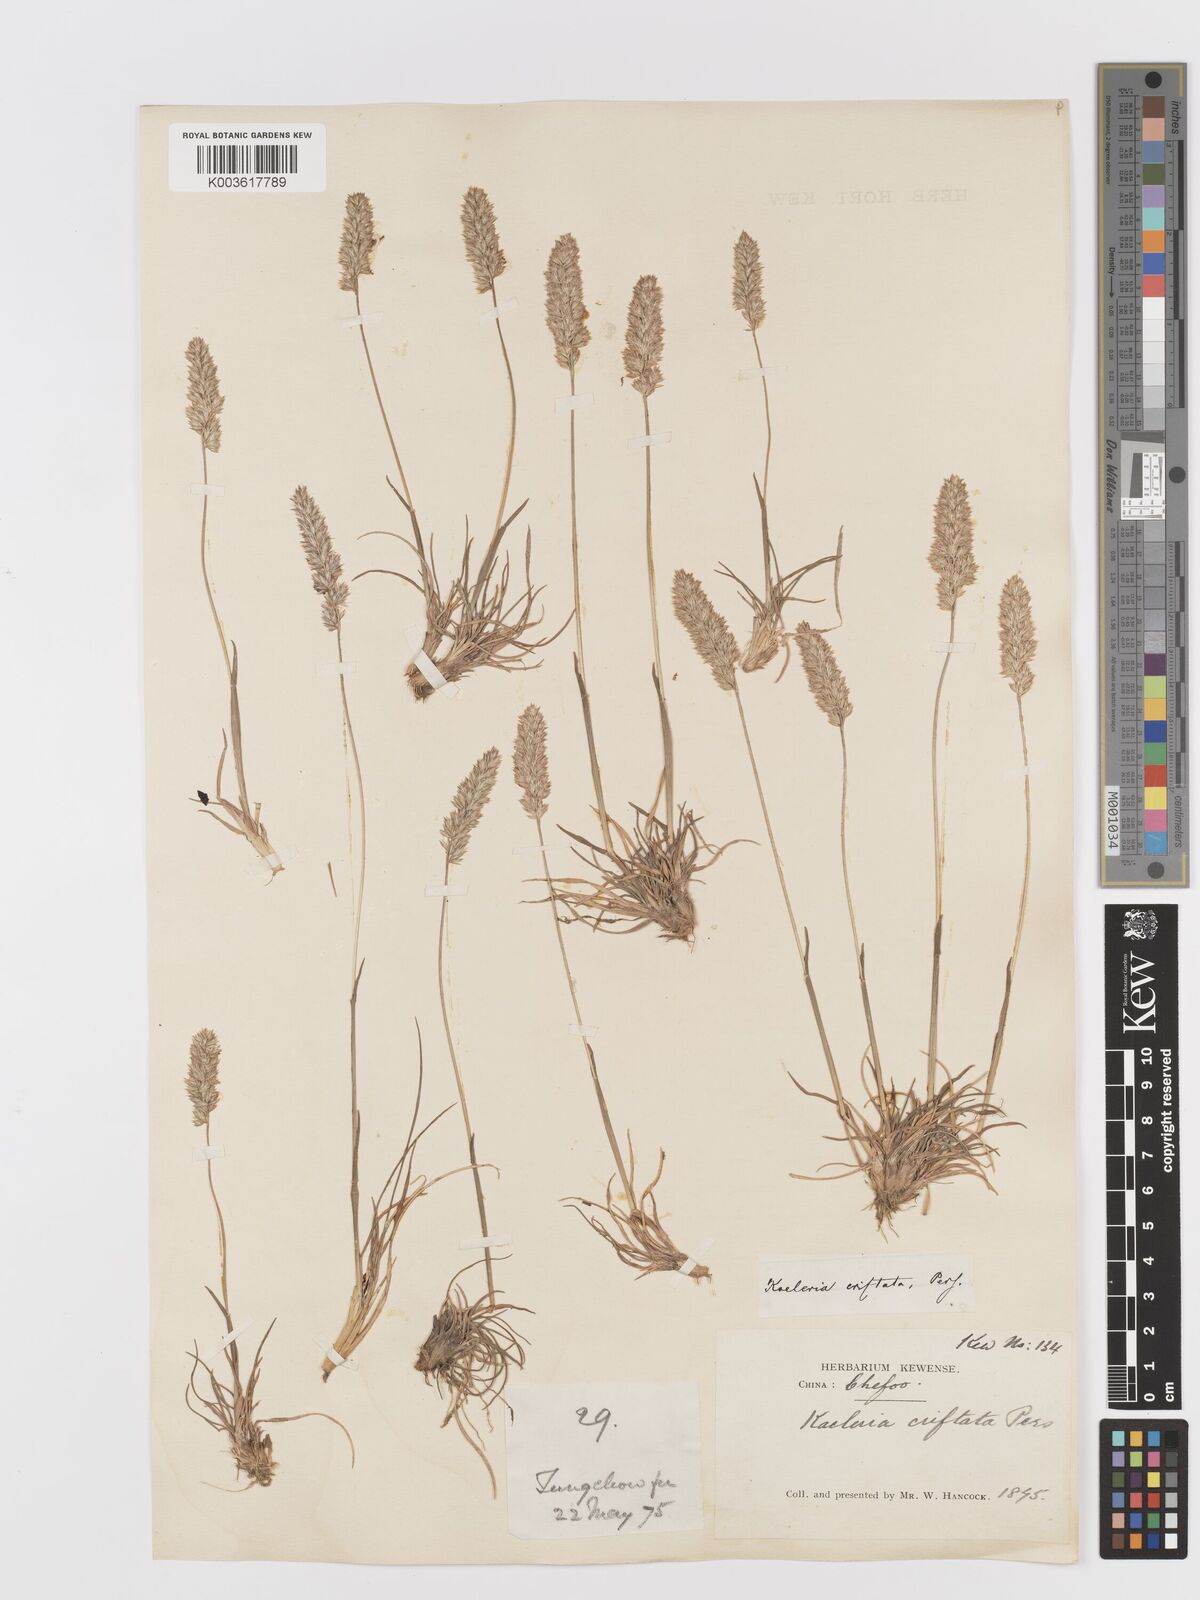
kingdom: Plantae
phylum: Tracheophyta
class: Liliopsida
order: Poales
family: Poaceae
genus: Koeleria
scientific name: Koeleria macrantha
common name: Crested hair-grass
